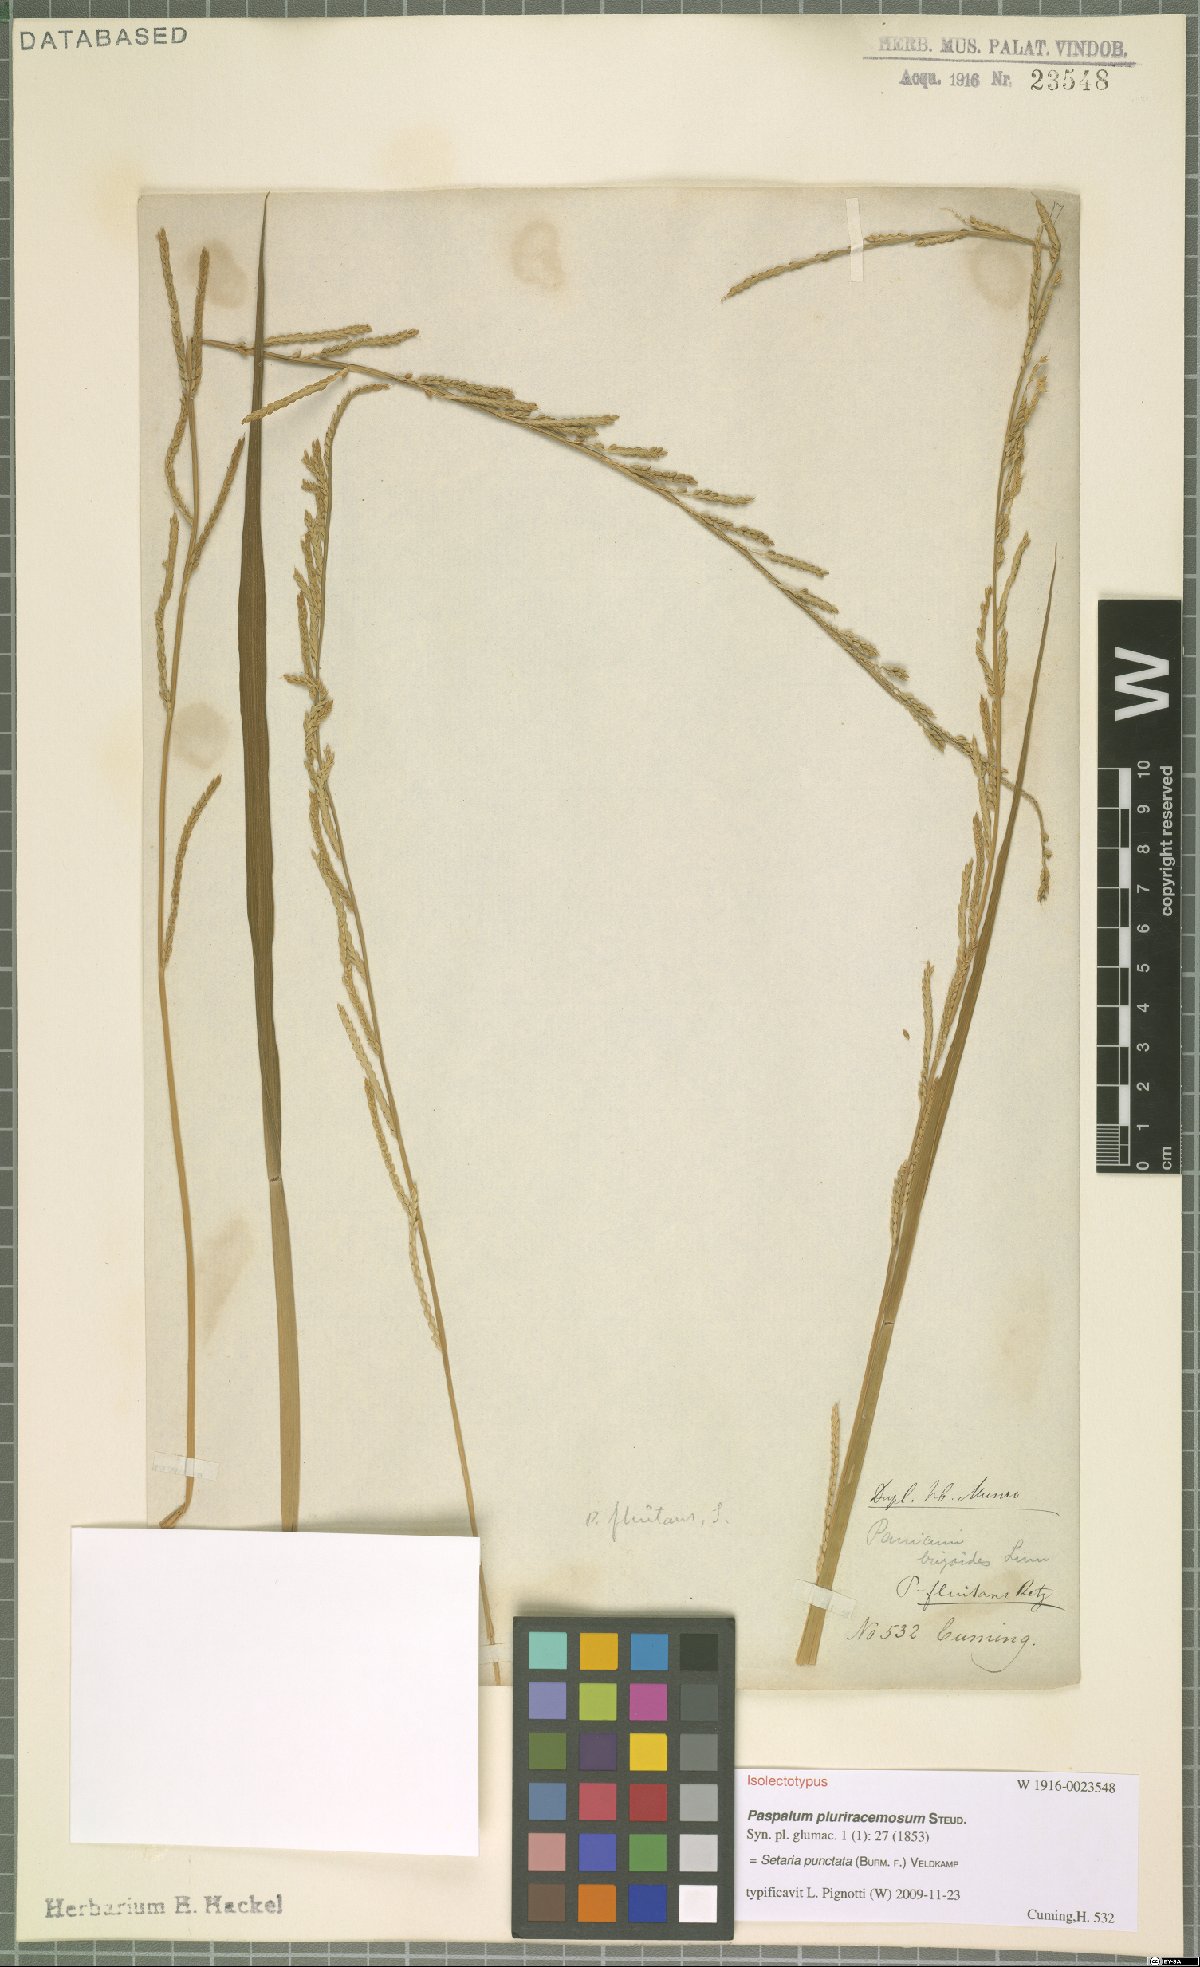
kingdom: Plantae
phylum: Tracheophyta
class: Liliopsida
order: Poales
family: Poaceae
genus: Setaria
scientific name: Setaria punctata
